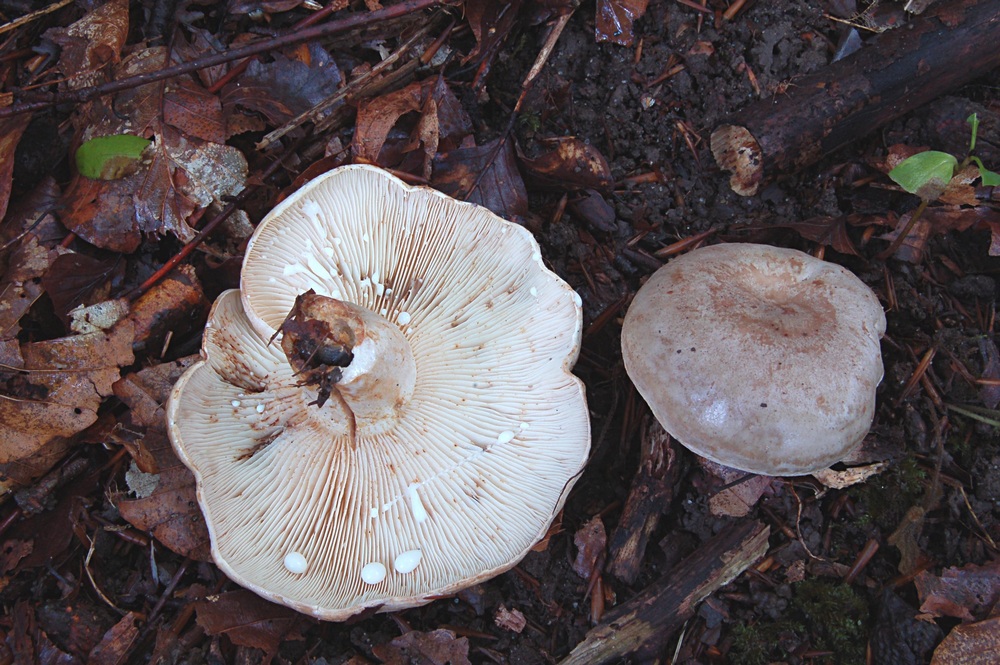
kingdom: Fungi
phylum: Basidiomycota
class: Agaricomycetes
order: Russulales
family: Russulaceae
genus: Lactarius
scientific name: Lactarius fluens
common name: lysrandet mælkehat
